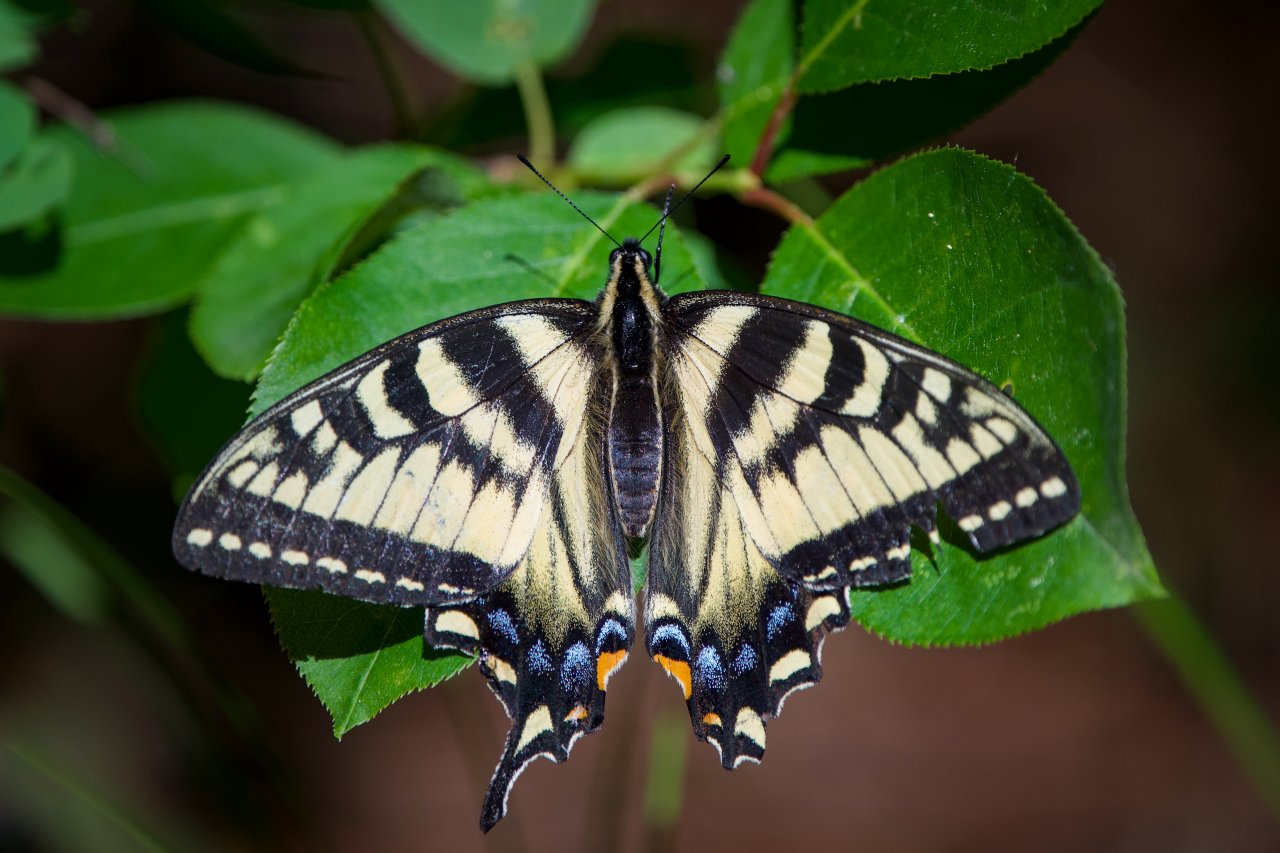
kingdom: Animalia
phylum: Arthropoda
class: Insecta
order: Lepidoptera
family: Papilionidae
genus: Pterourus
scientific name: Pterourus canadensis
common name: Canadian Tiger Swallowtail
